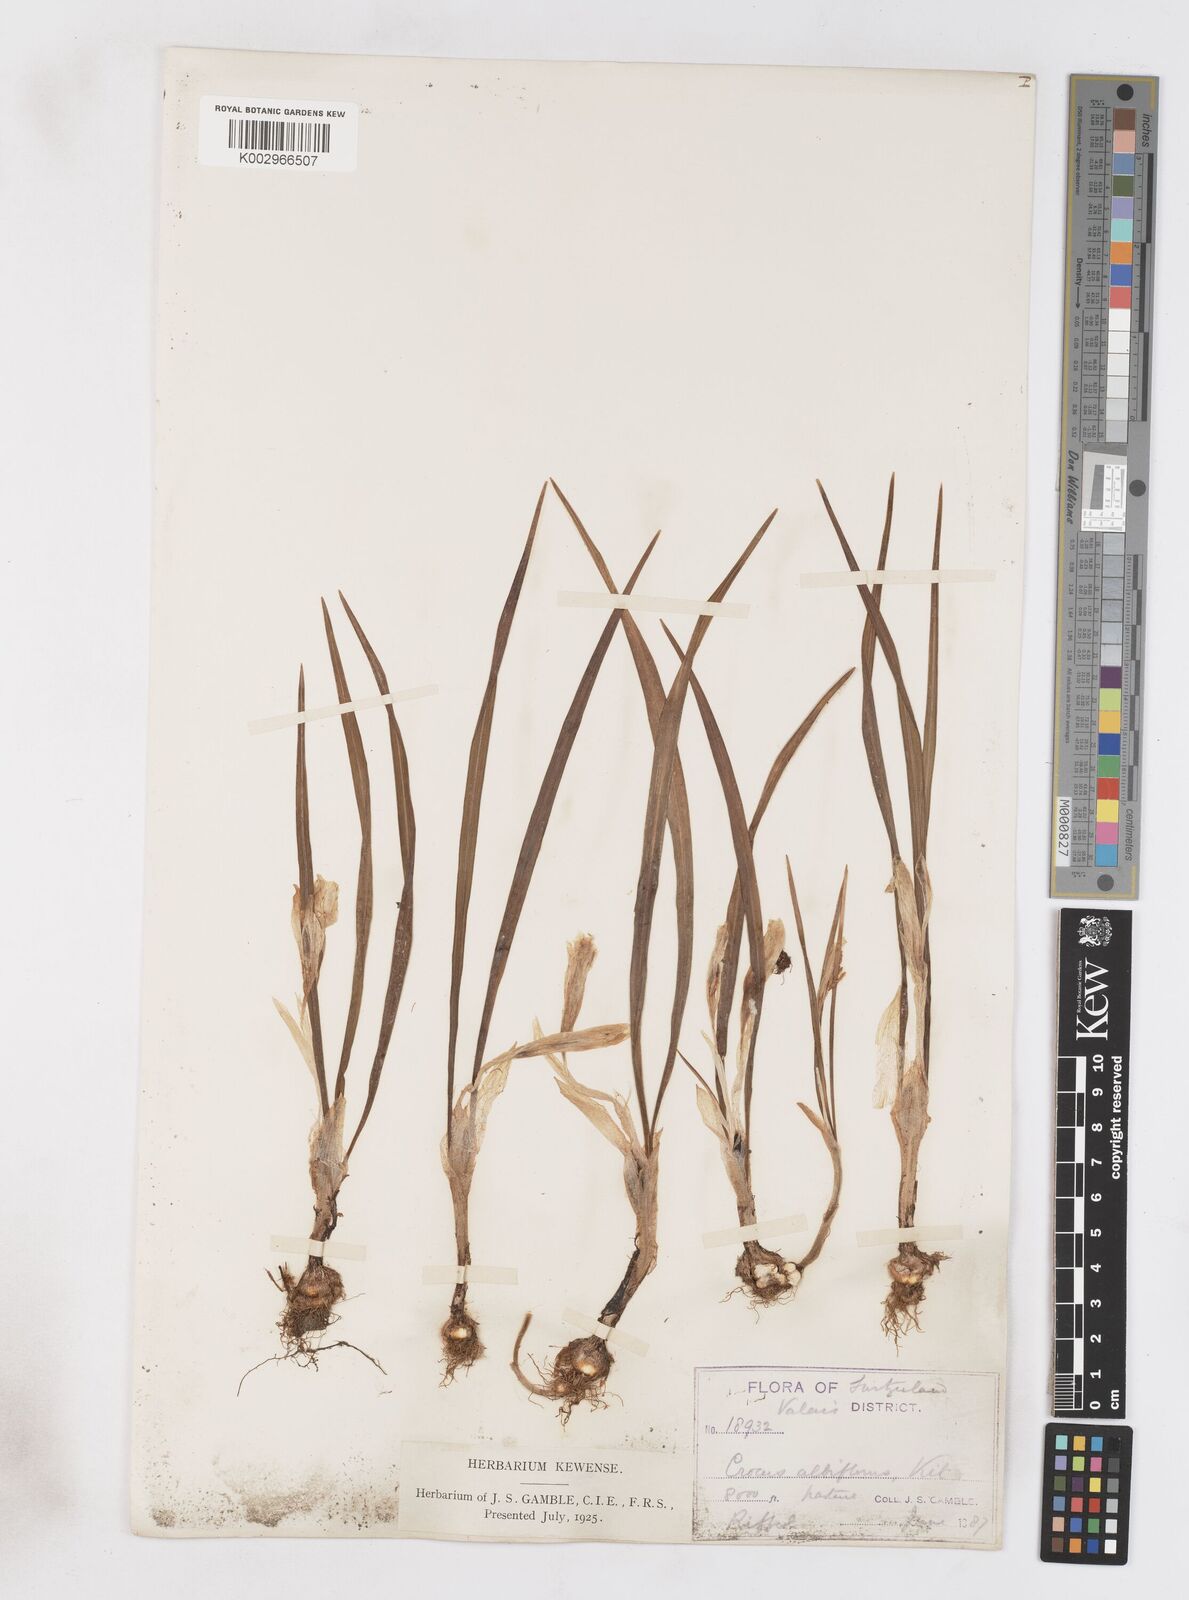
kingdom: Plantae
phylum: Tracheophyta
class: Liliopsida
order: Asparagales
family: Iridaceae
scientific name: Iridaceae
